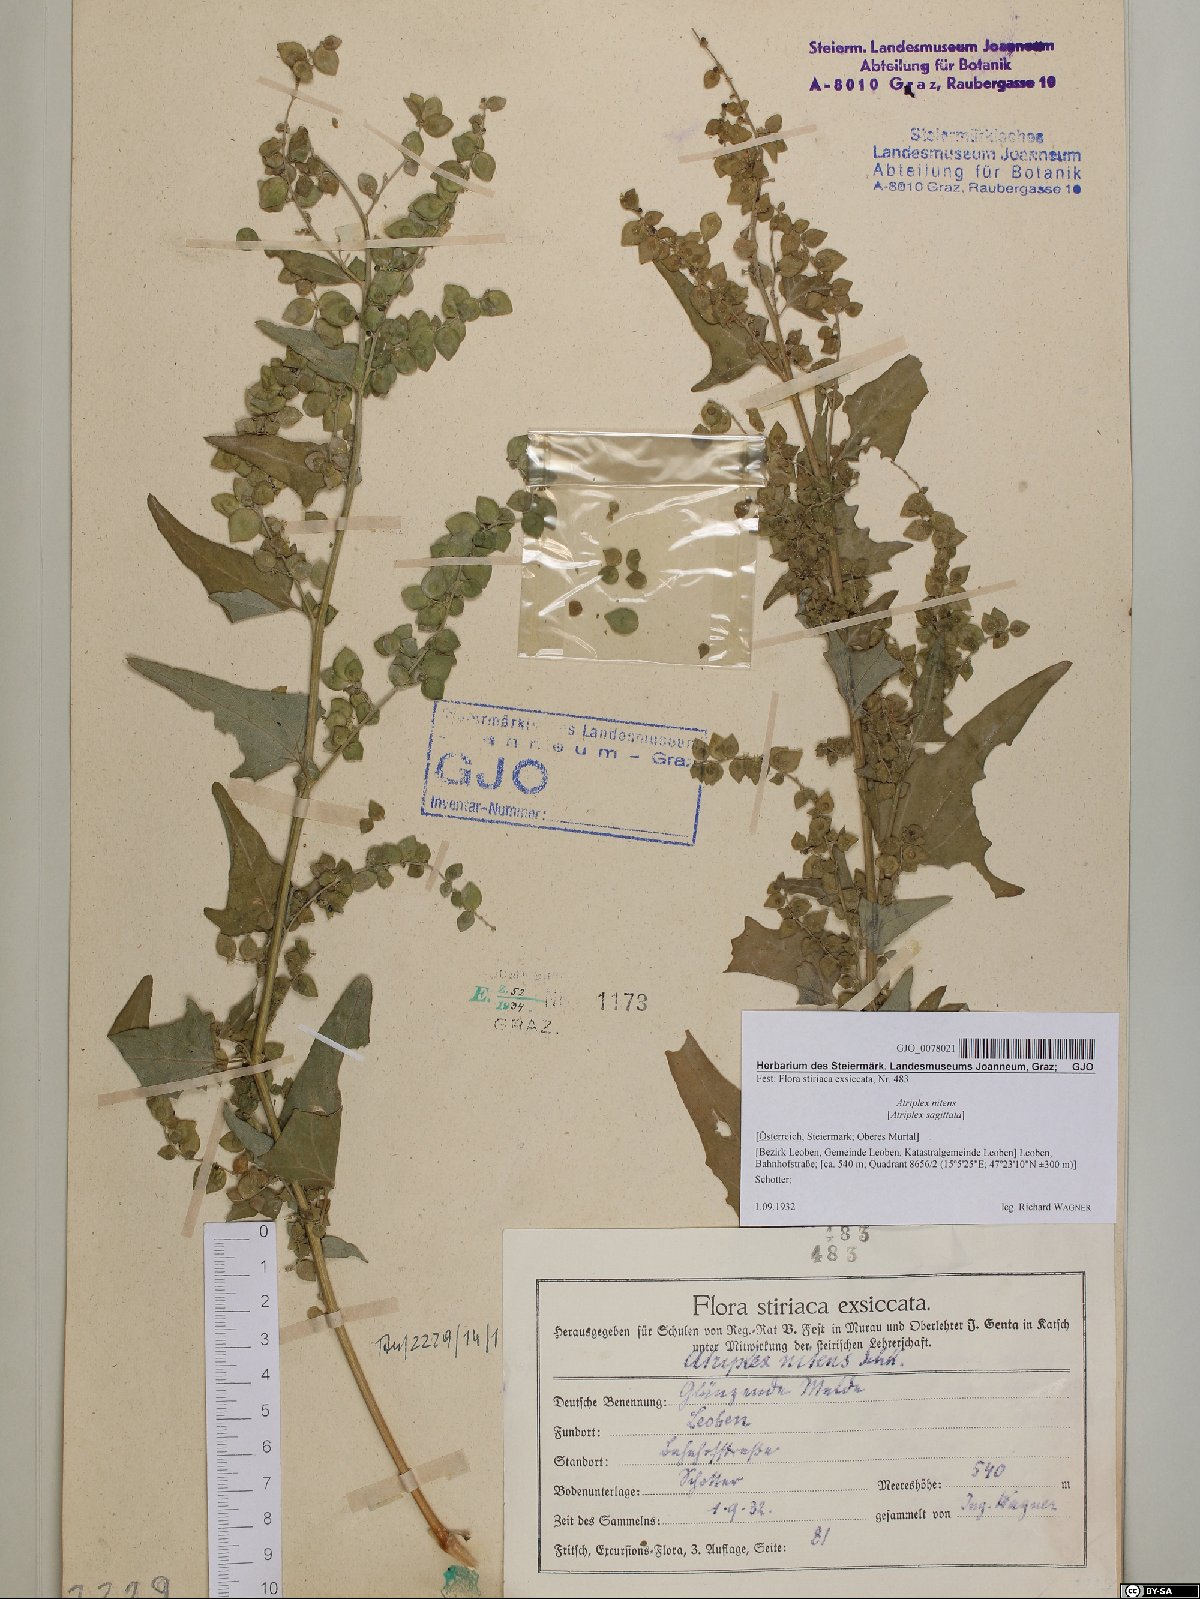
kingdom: Plantae
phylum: Tracheophyta
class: Magnoliopsida
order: Caryophyllales
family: Amaranthaceae
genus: Atriplex
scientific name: Atriplex sagittata
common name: Purple orache
